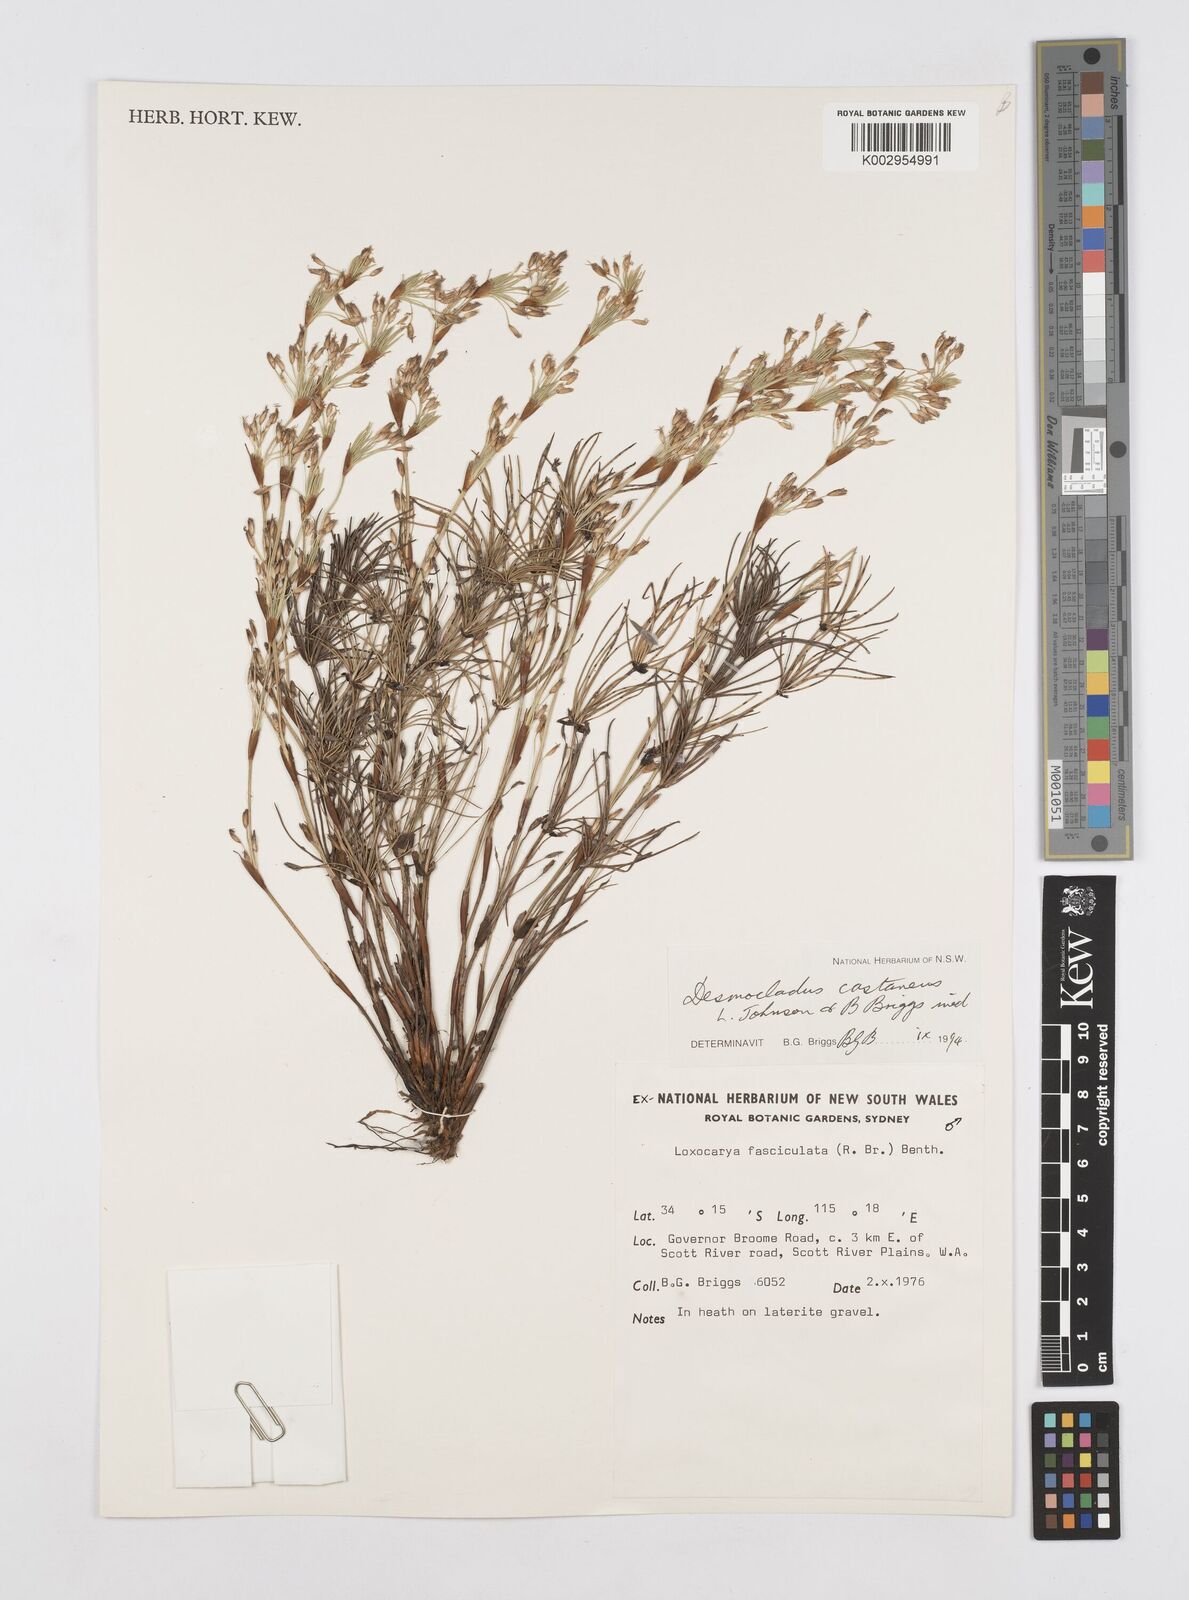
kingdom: Plantae
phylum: Tracheophyta
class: Liliopsida
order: Poales
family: Restionaceae
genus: Desmocladus
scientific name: Desmocladus castaneus
